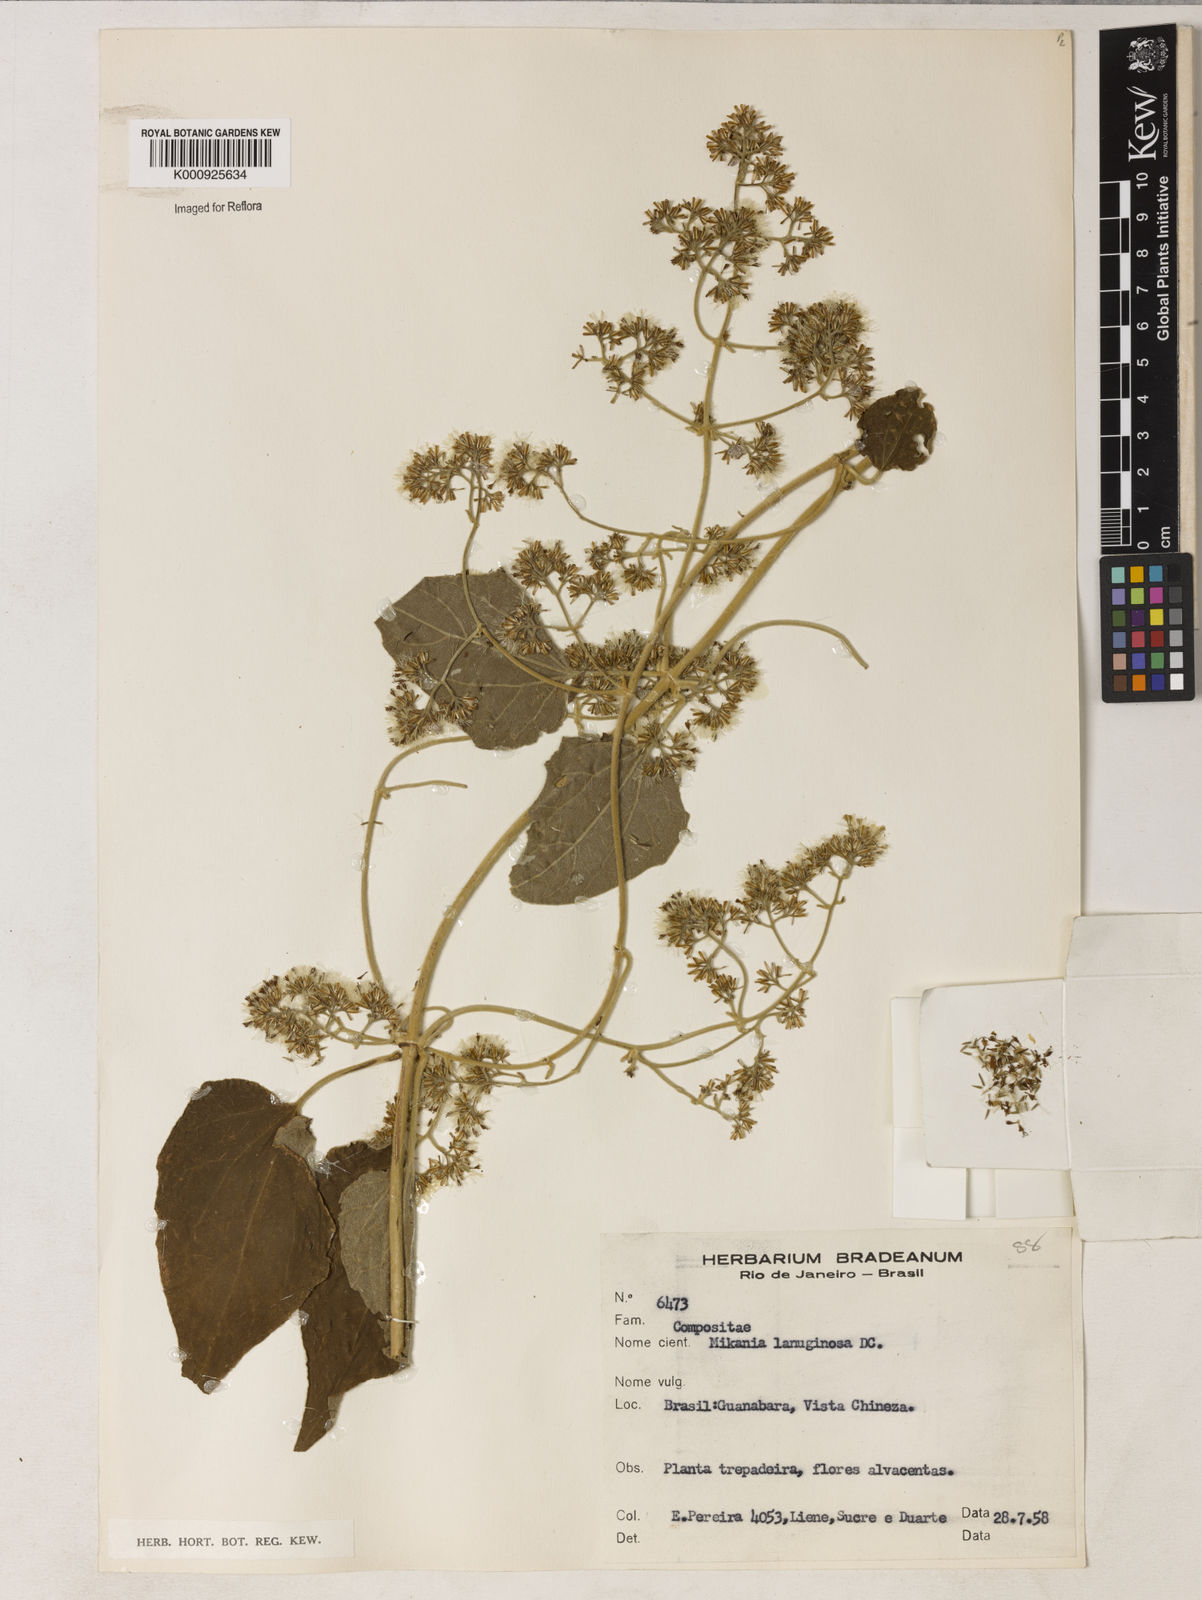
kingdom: Plantae
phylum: Tracheophyta
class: Magnoliopsida
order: Asterales
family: Asteraceae
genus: Mikania
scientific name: Mikania laevigata
